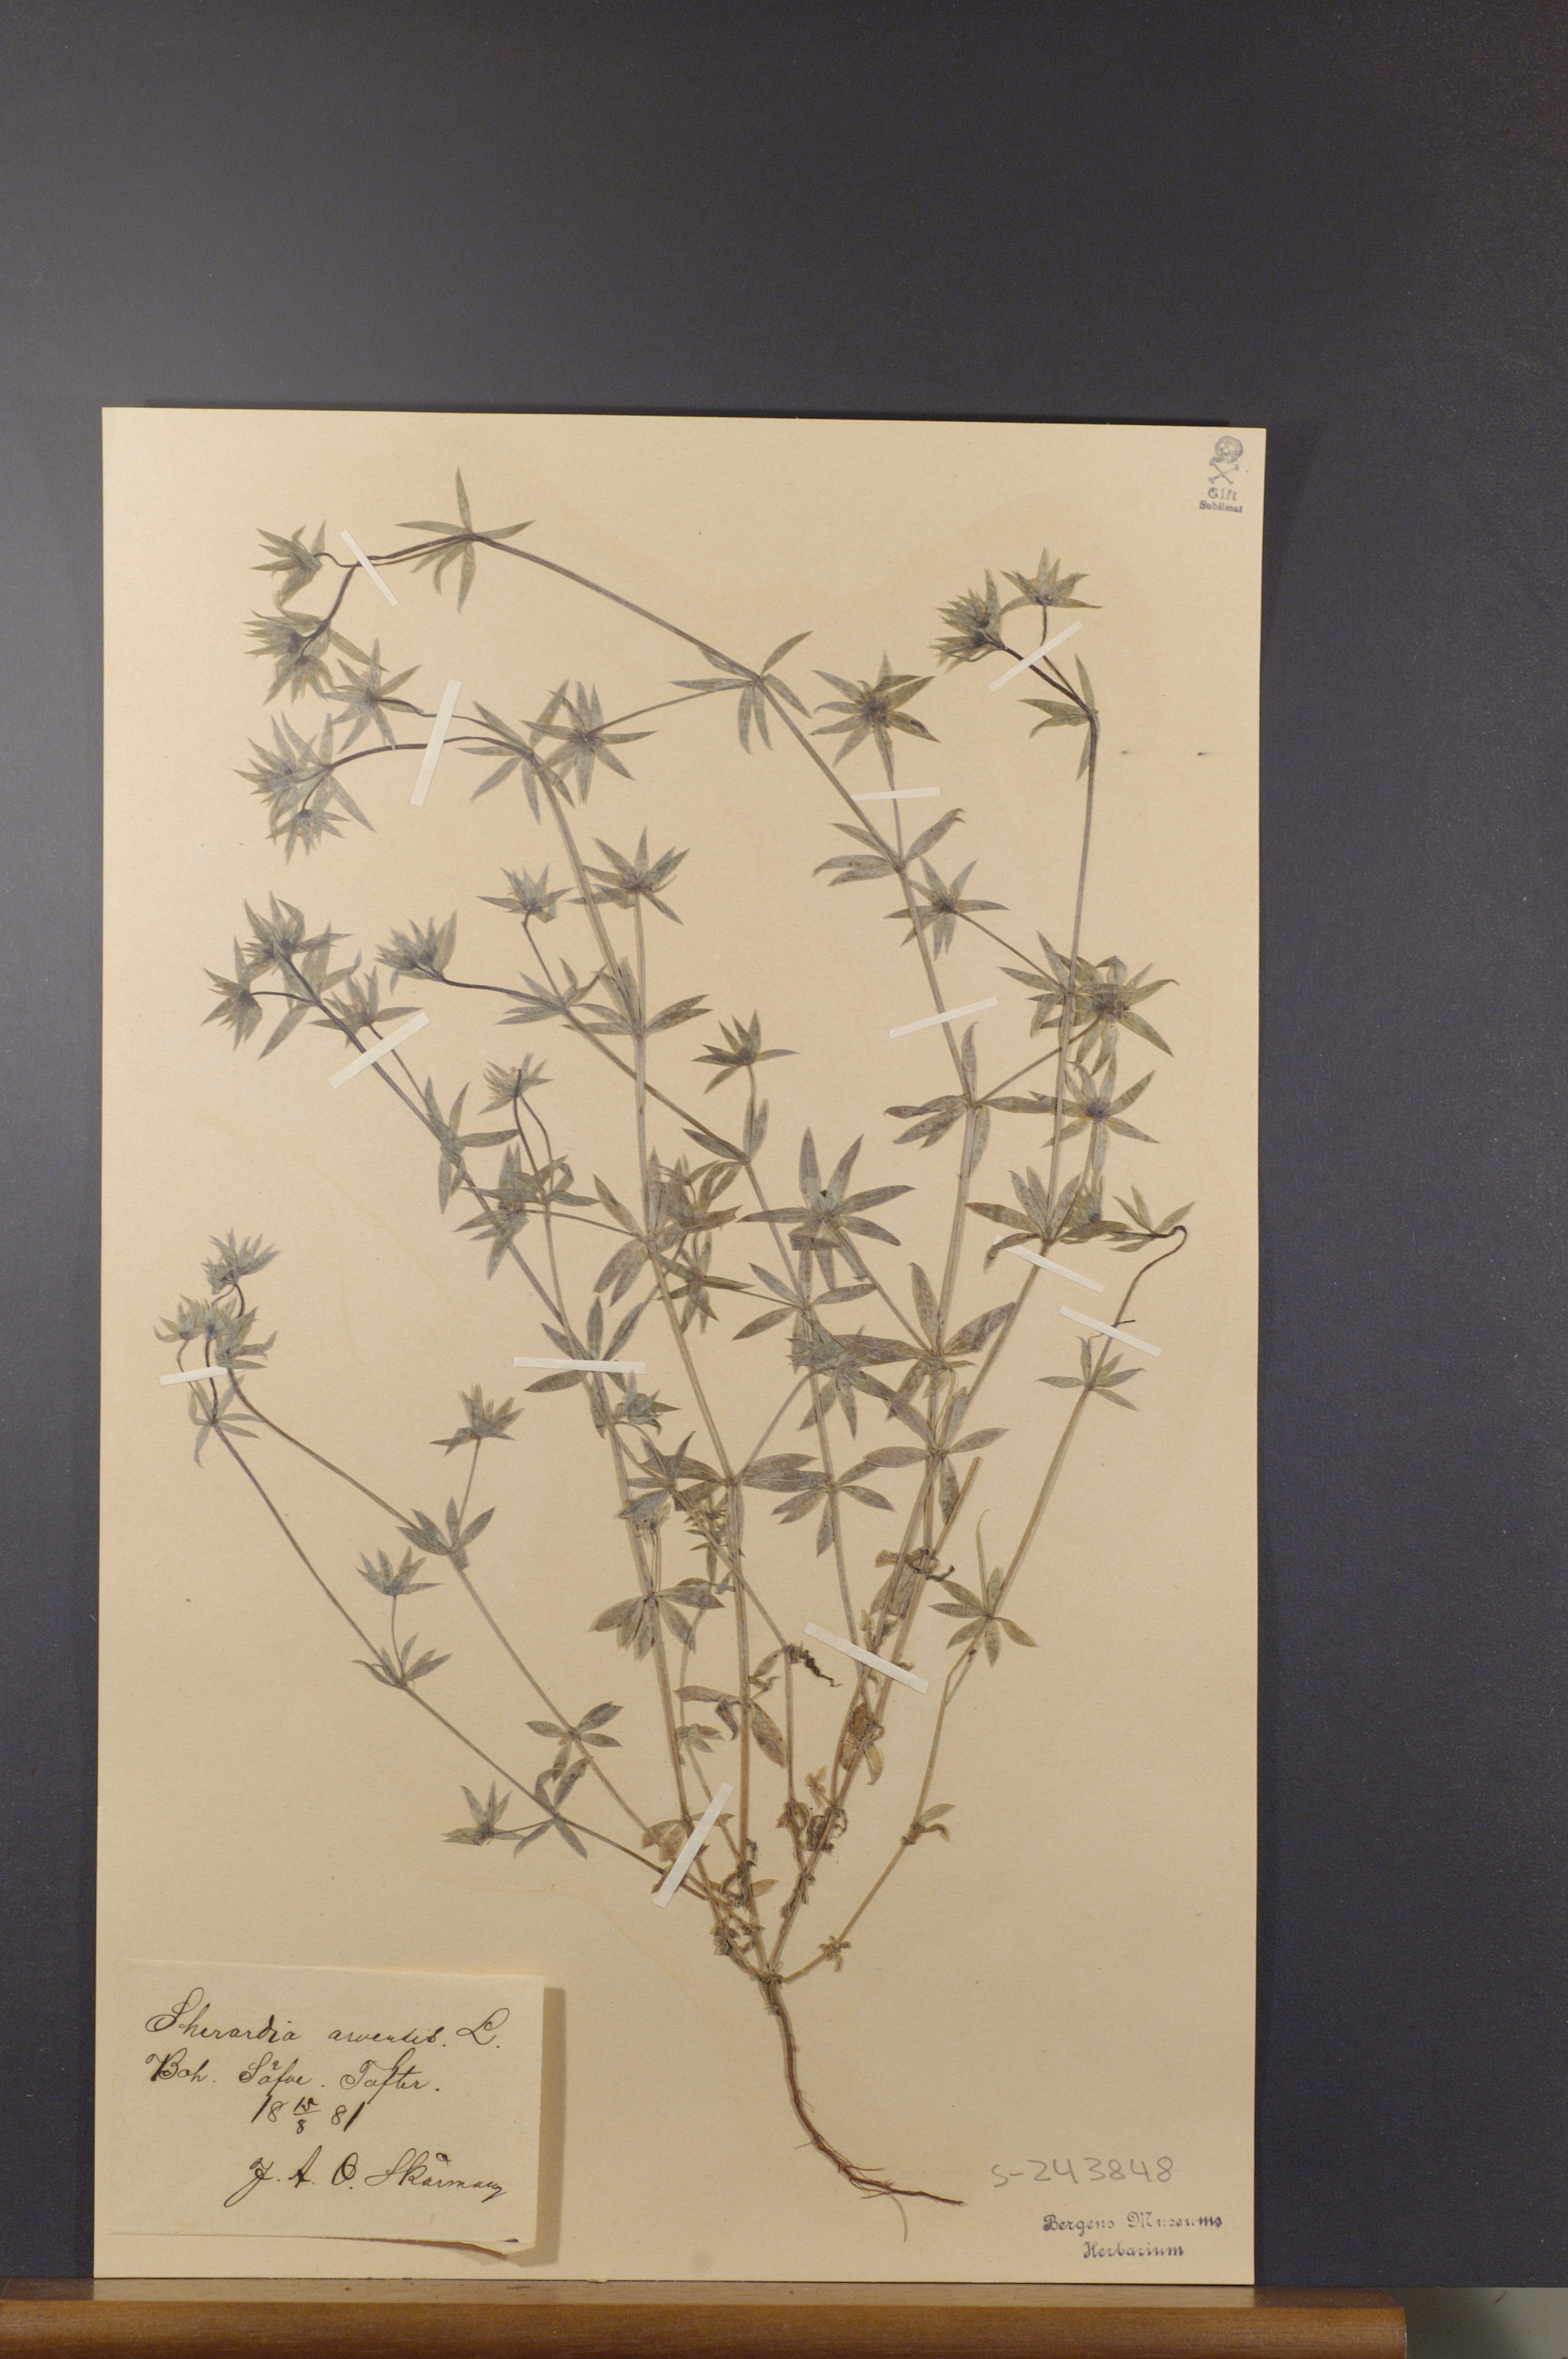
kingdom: Plantae
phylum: Tracheophyta
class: Magnoliopsida
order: Gentianales
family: Rubiaceae
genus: Sherardia
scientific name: Sherardia arvensis
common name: Field madder
